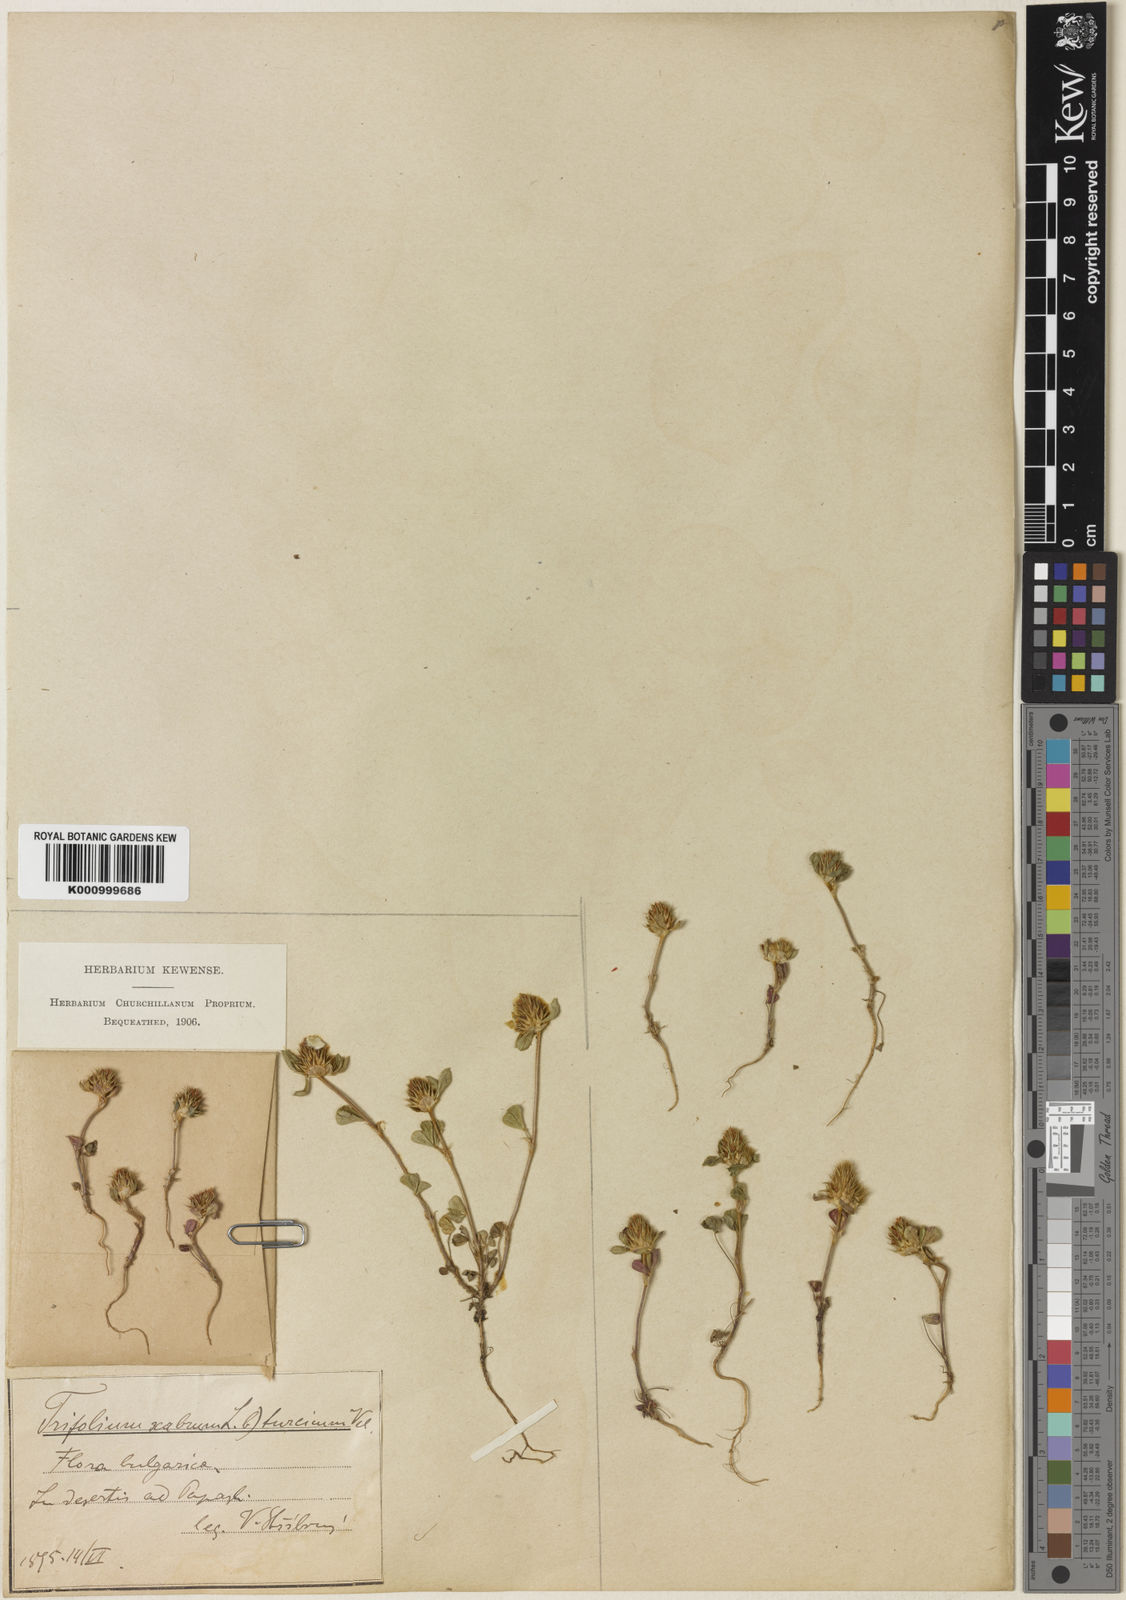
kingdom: Plantae
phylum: Tracheophyta
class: Magnoliopsida
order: Fabales
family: Fabaceae
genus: Trifolium
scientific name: Trifolium constantinopolitanum
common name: Constantinople clover
